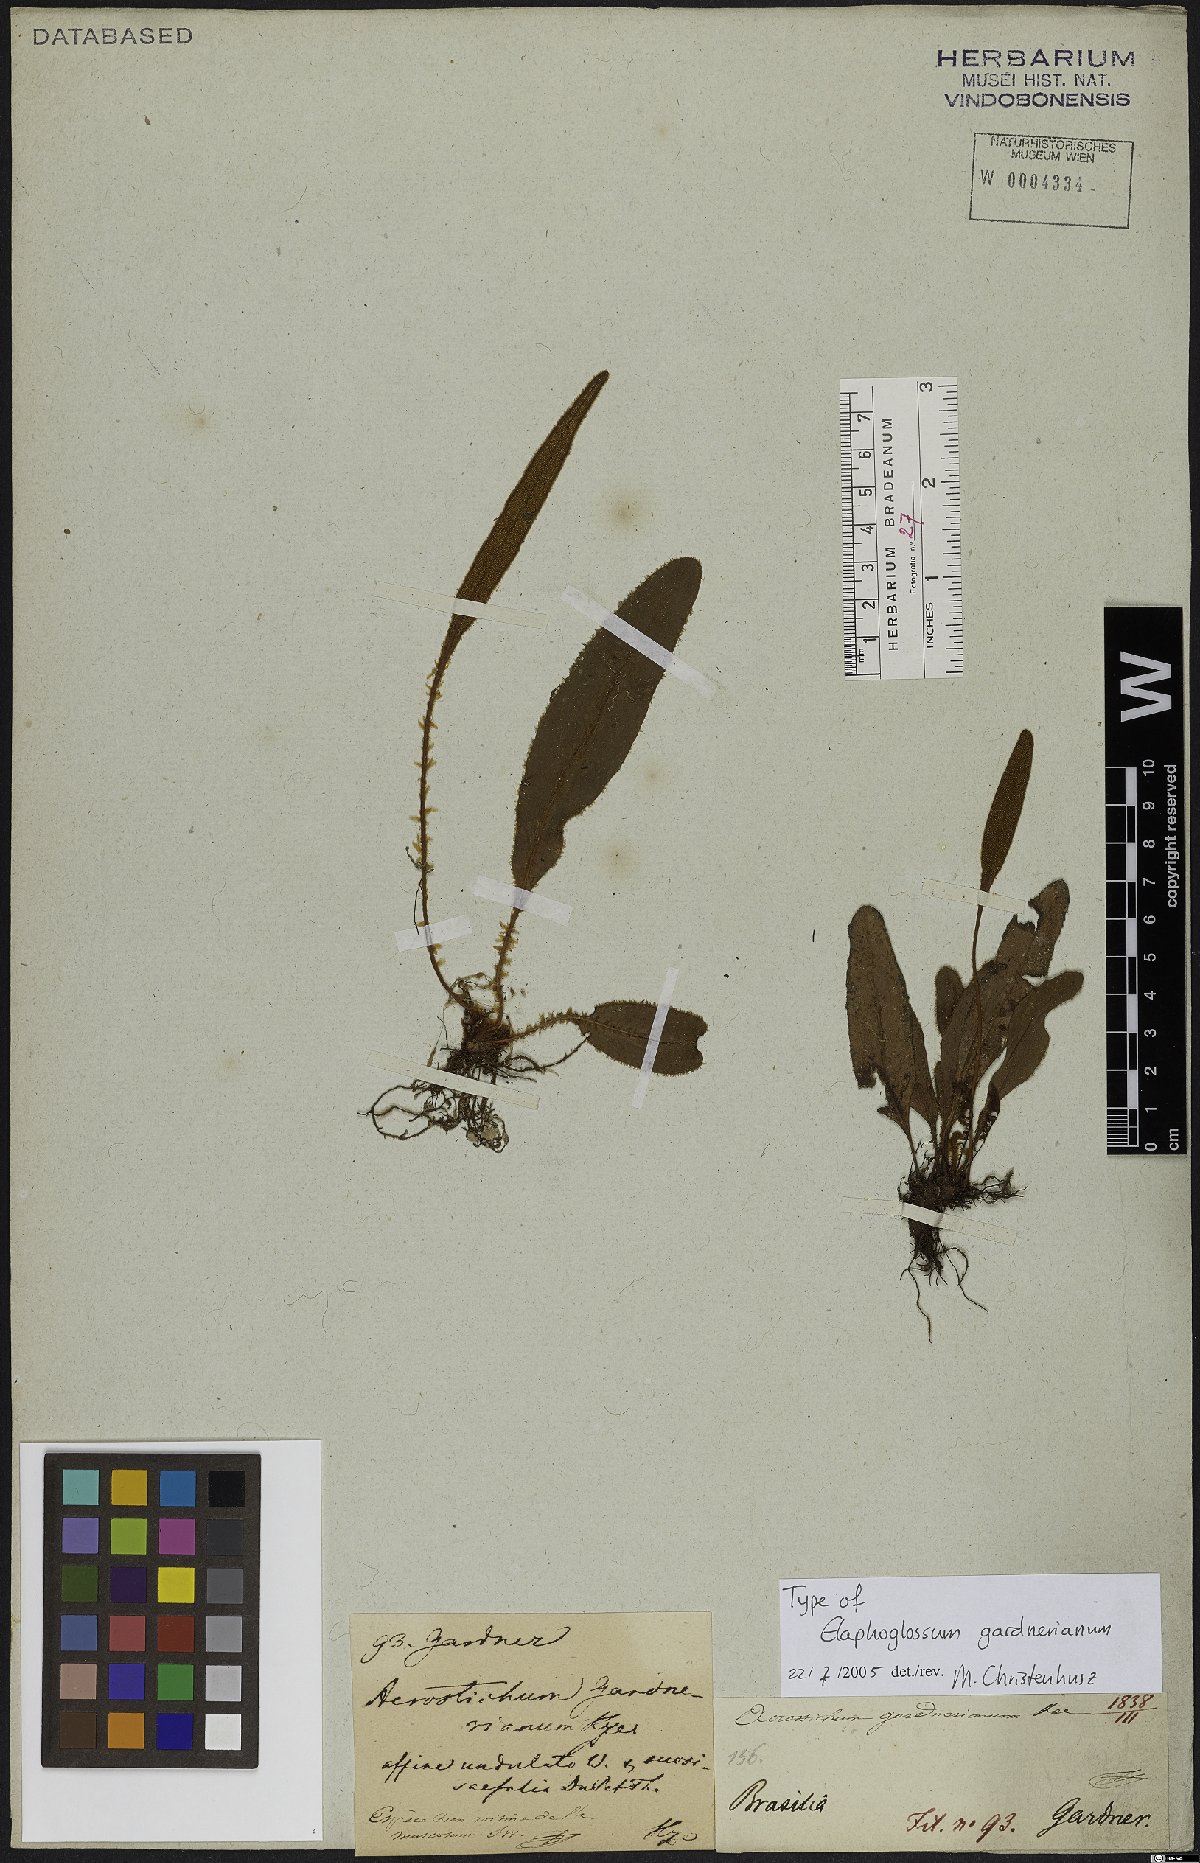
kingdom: Plantae
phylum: Tracheophyta
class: Polypodiopsida
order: Polypodiales
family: Dryopteridaceae
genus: Elaphoglossum
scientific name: Elaphoglossum gardnerianum
